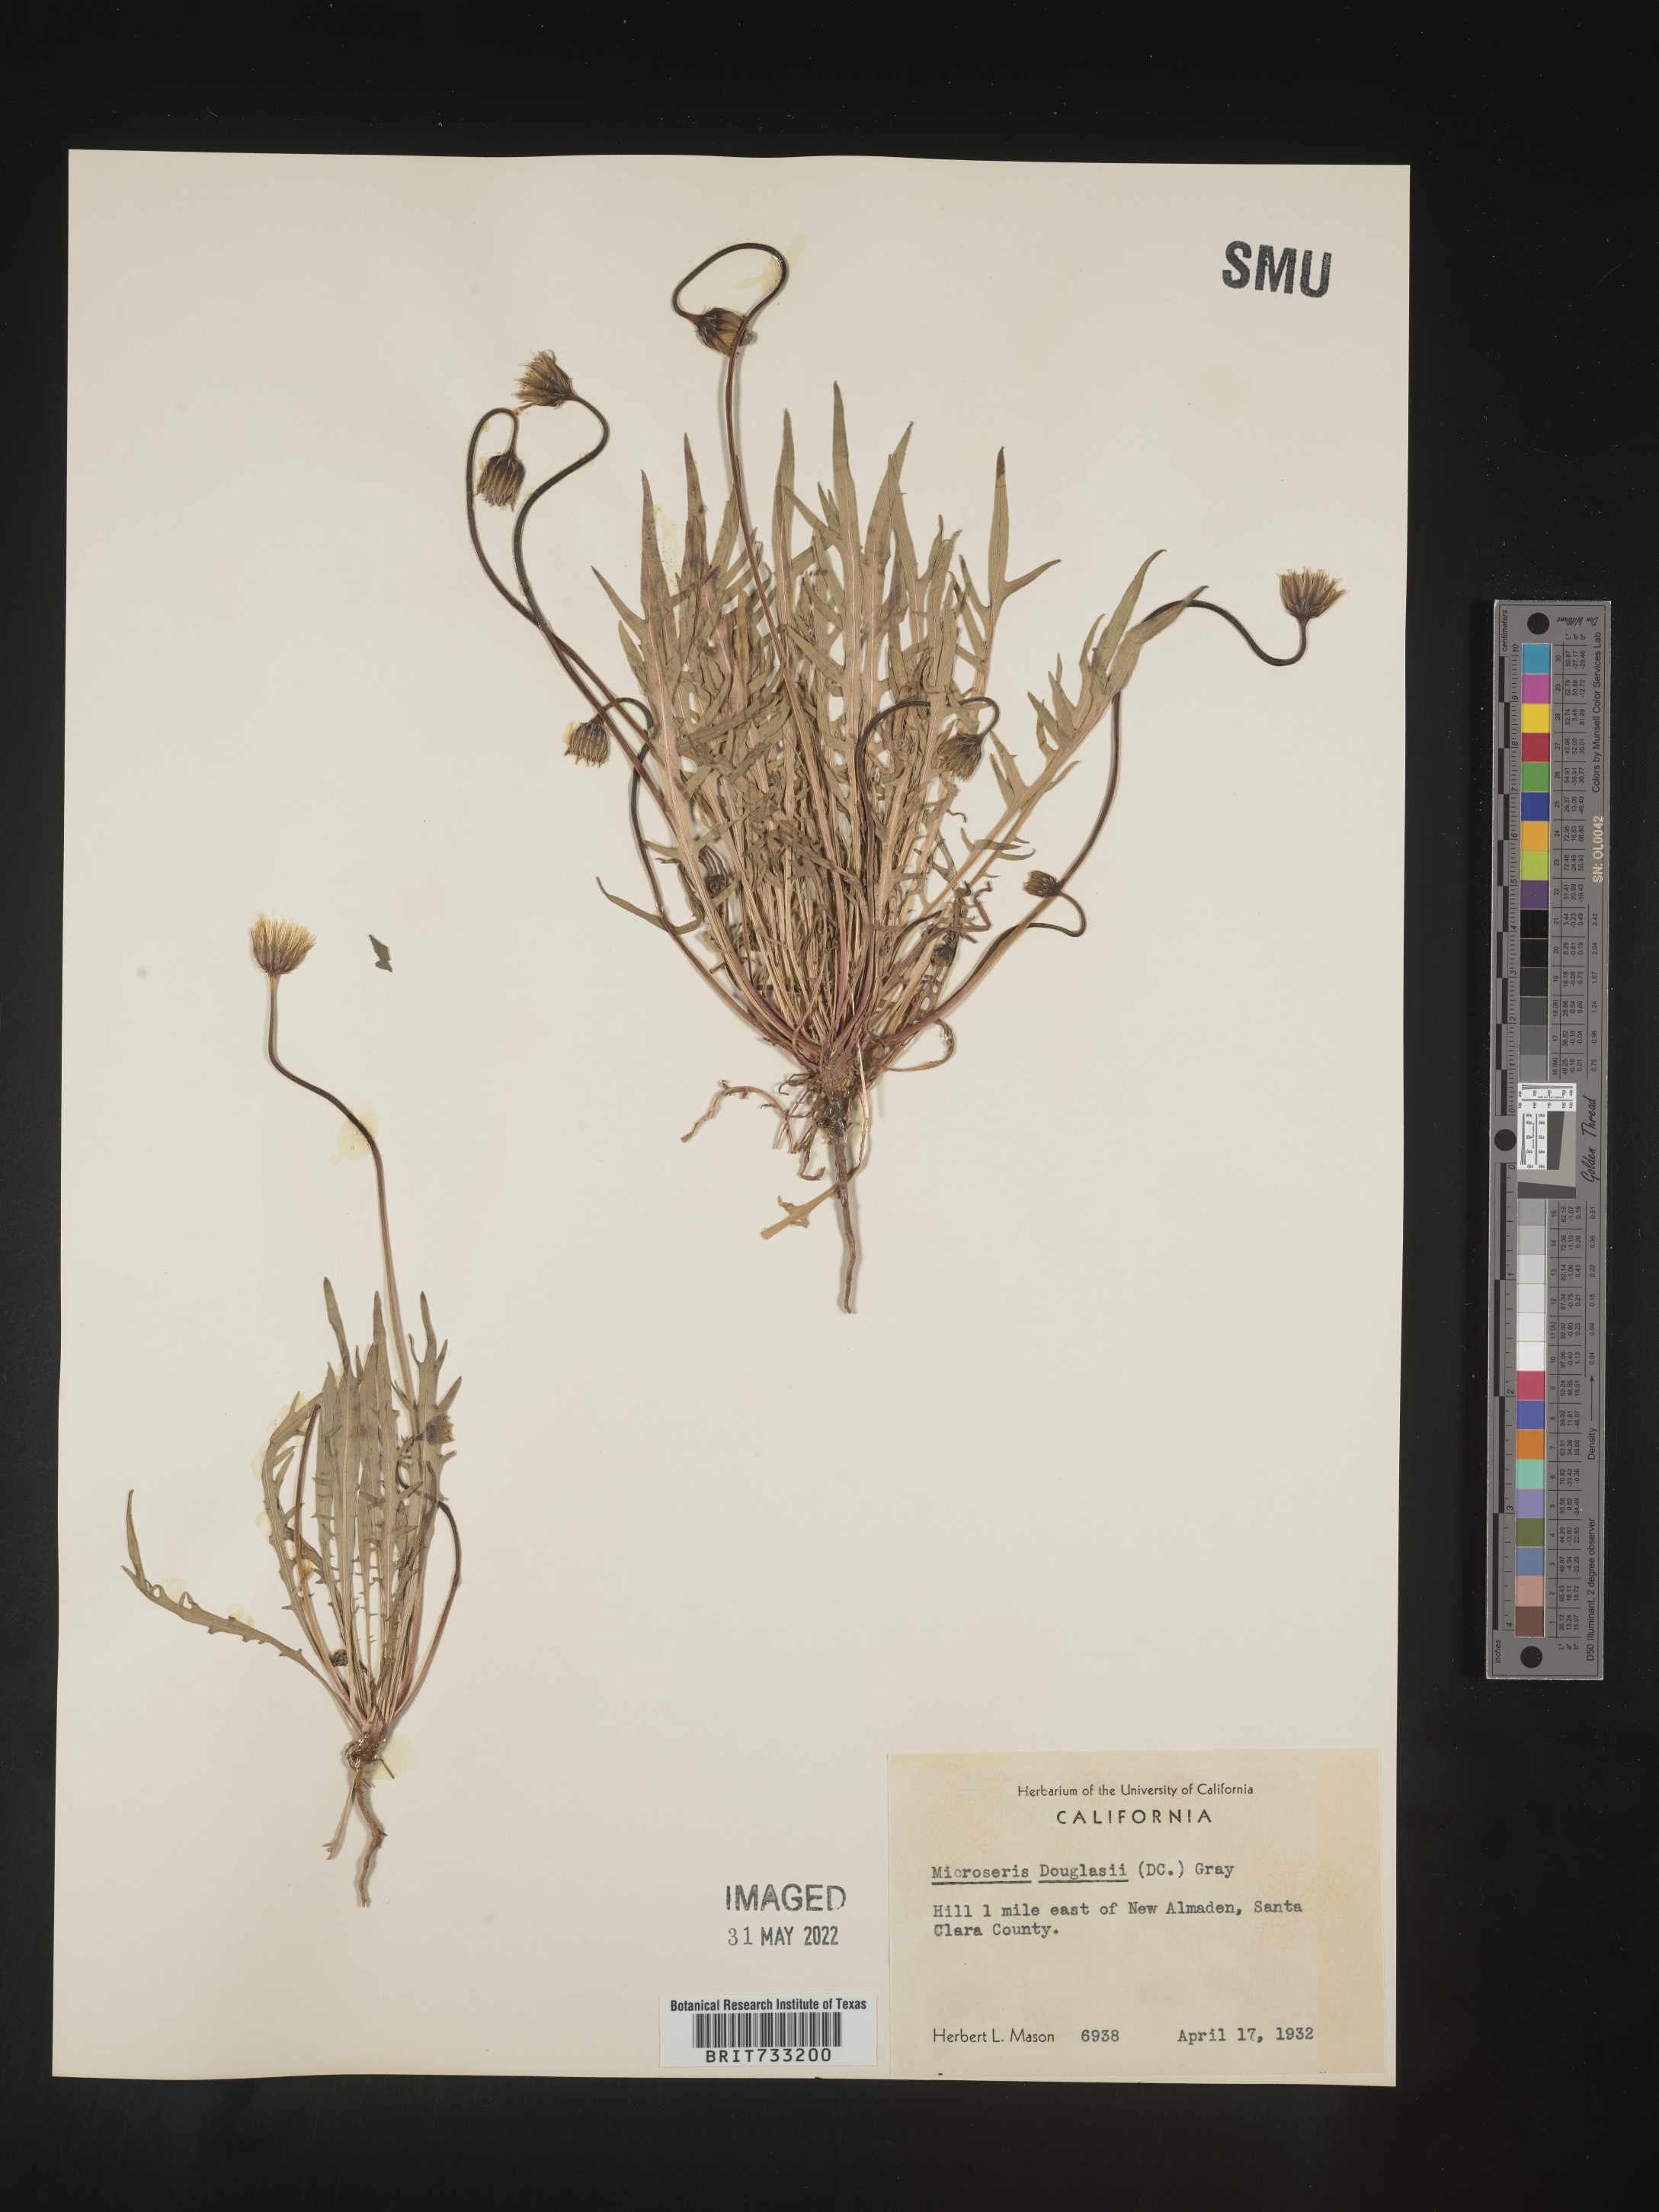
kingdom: Plantae
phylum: Tracheophyta
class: Magnoliopsida
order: Asterales
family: Asteraceae
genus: Microseris
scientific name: Microseris douglasii
